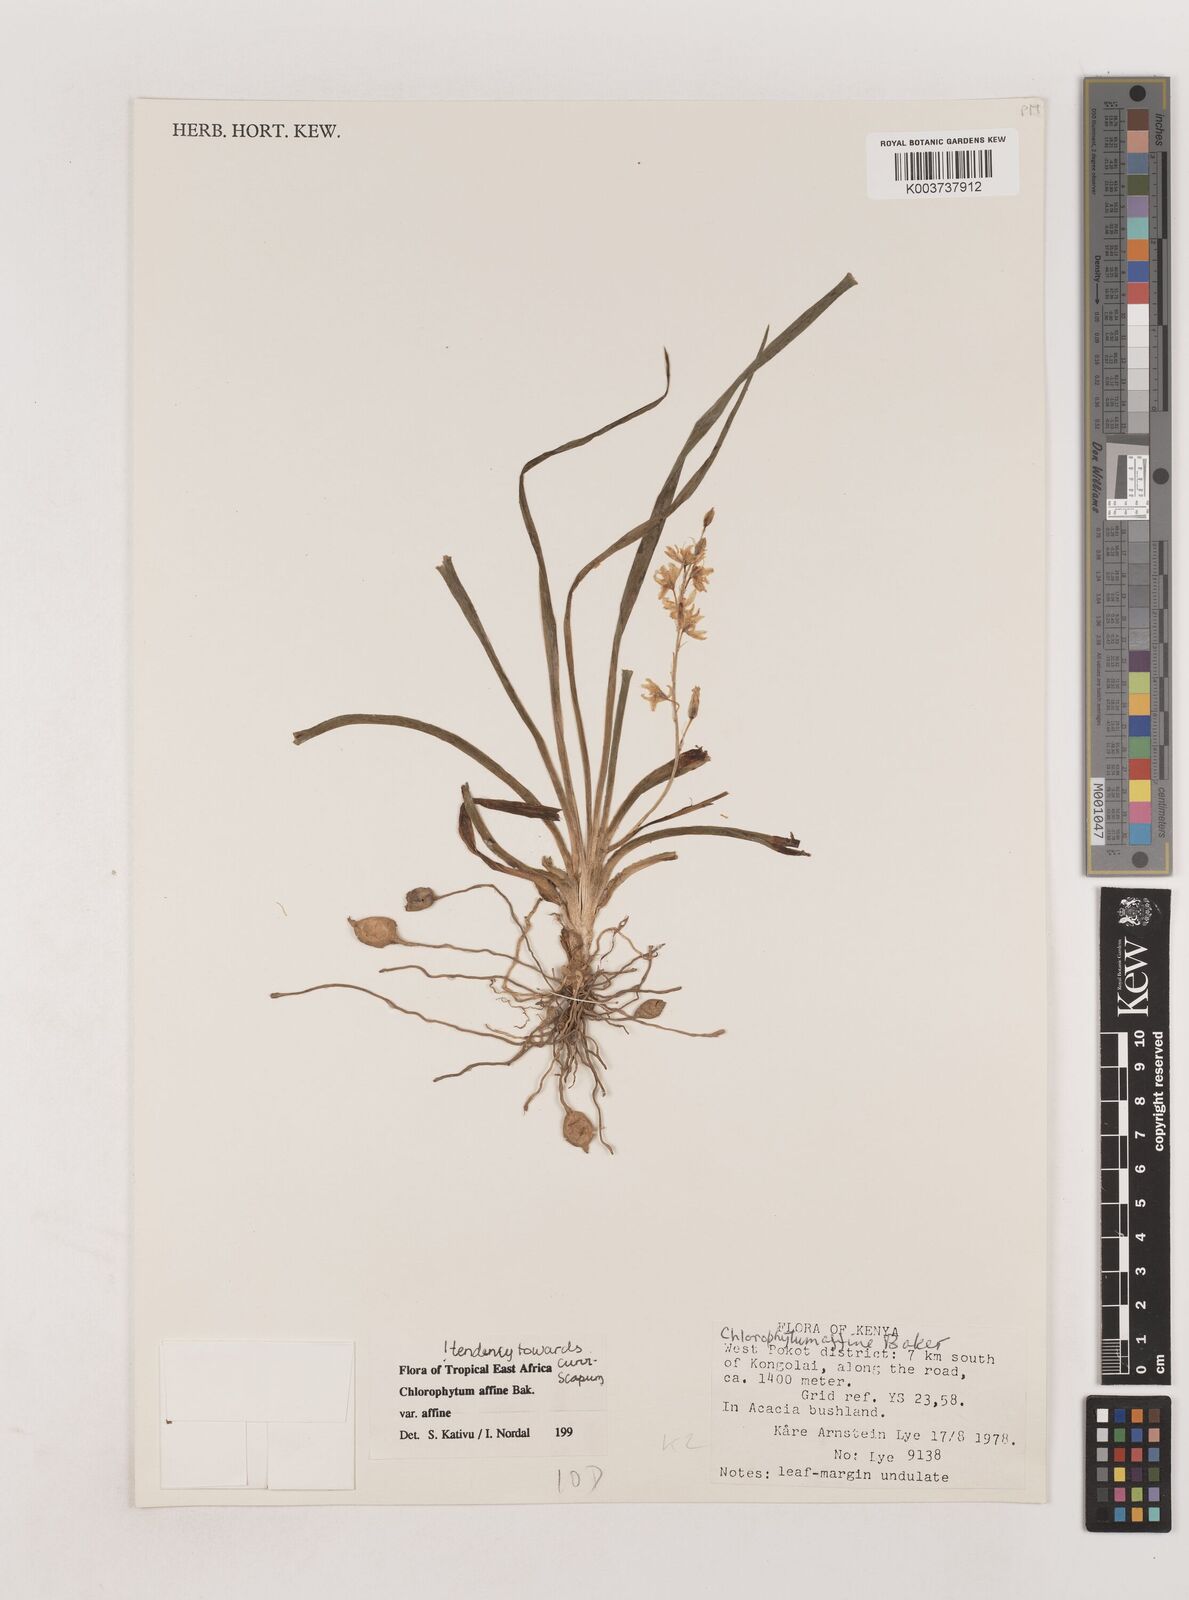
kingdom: Plantae
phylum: Tracheophyta
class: Liliopsida
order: Asparagales
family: Asparagaceae
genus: Chlorophytum
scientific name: Chlorophytum affine
